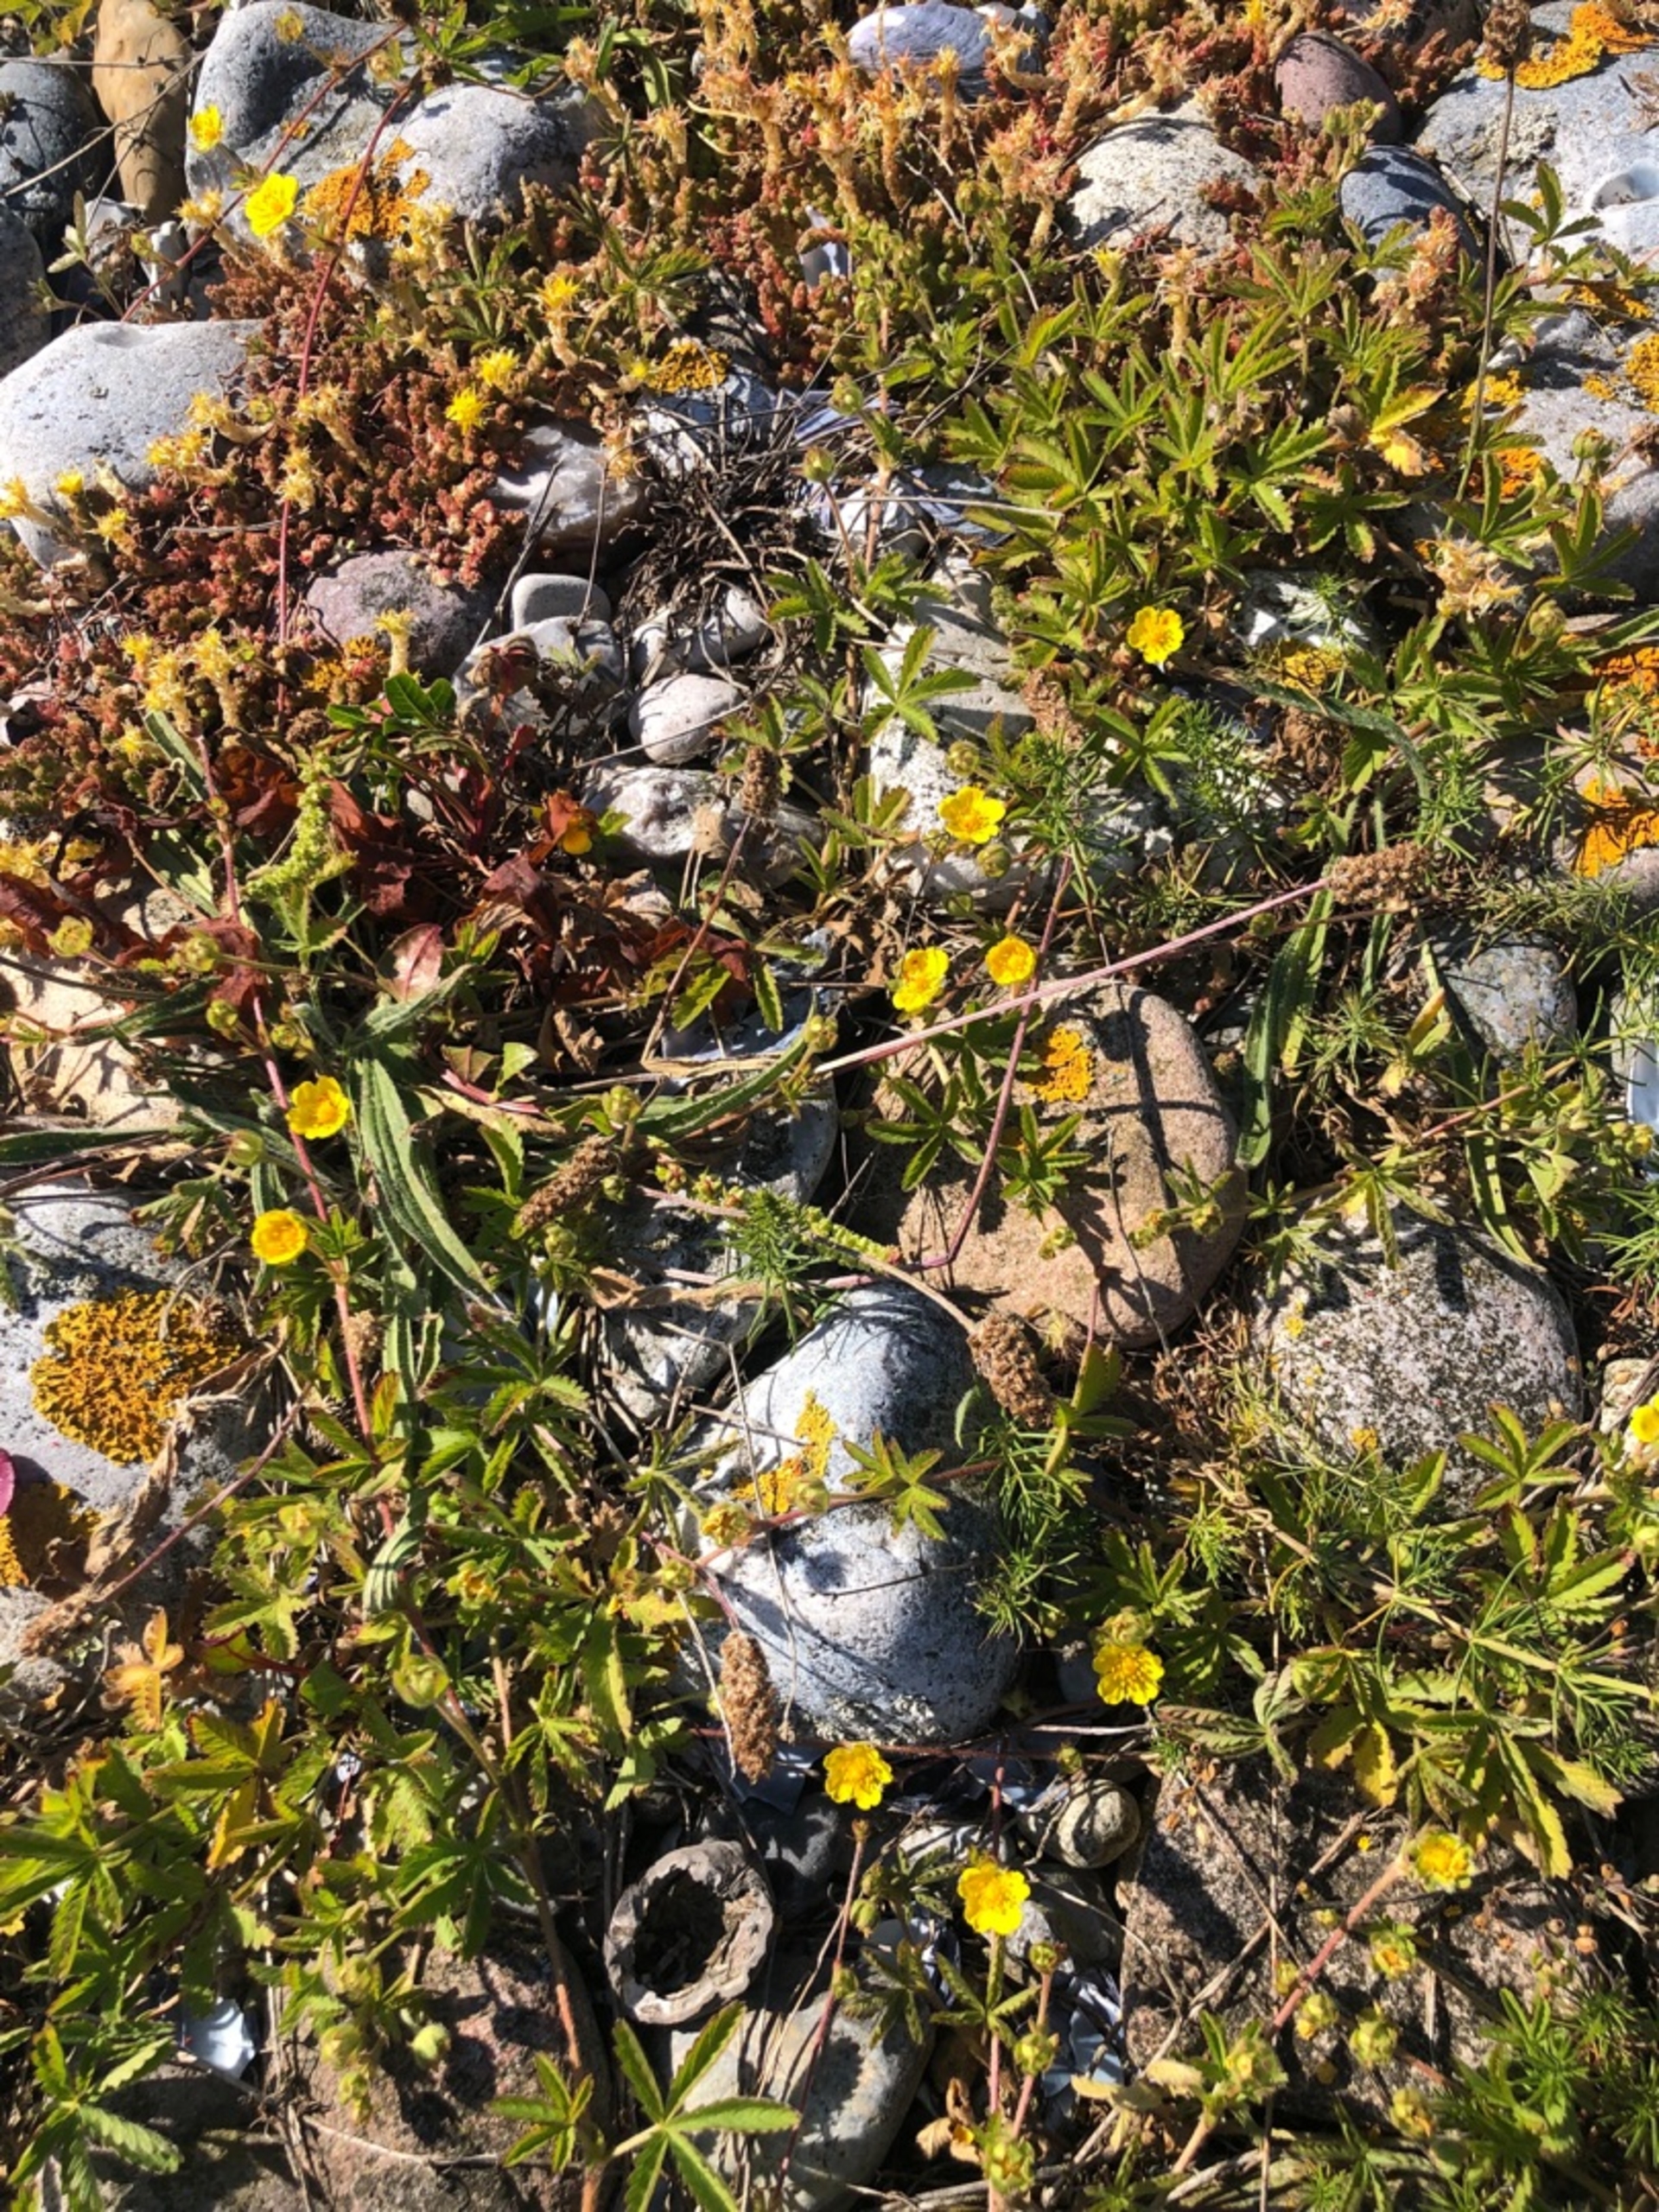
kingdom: Plantae
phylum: Tracheophyta
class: Magnoliopsida
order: Rosales
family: Rosaceae
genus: Potentilla
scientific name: Potentilla reptans
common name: Krybende potentil
